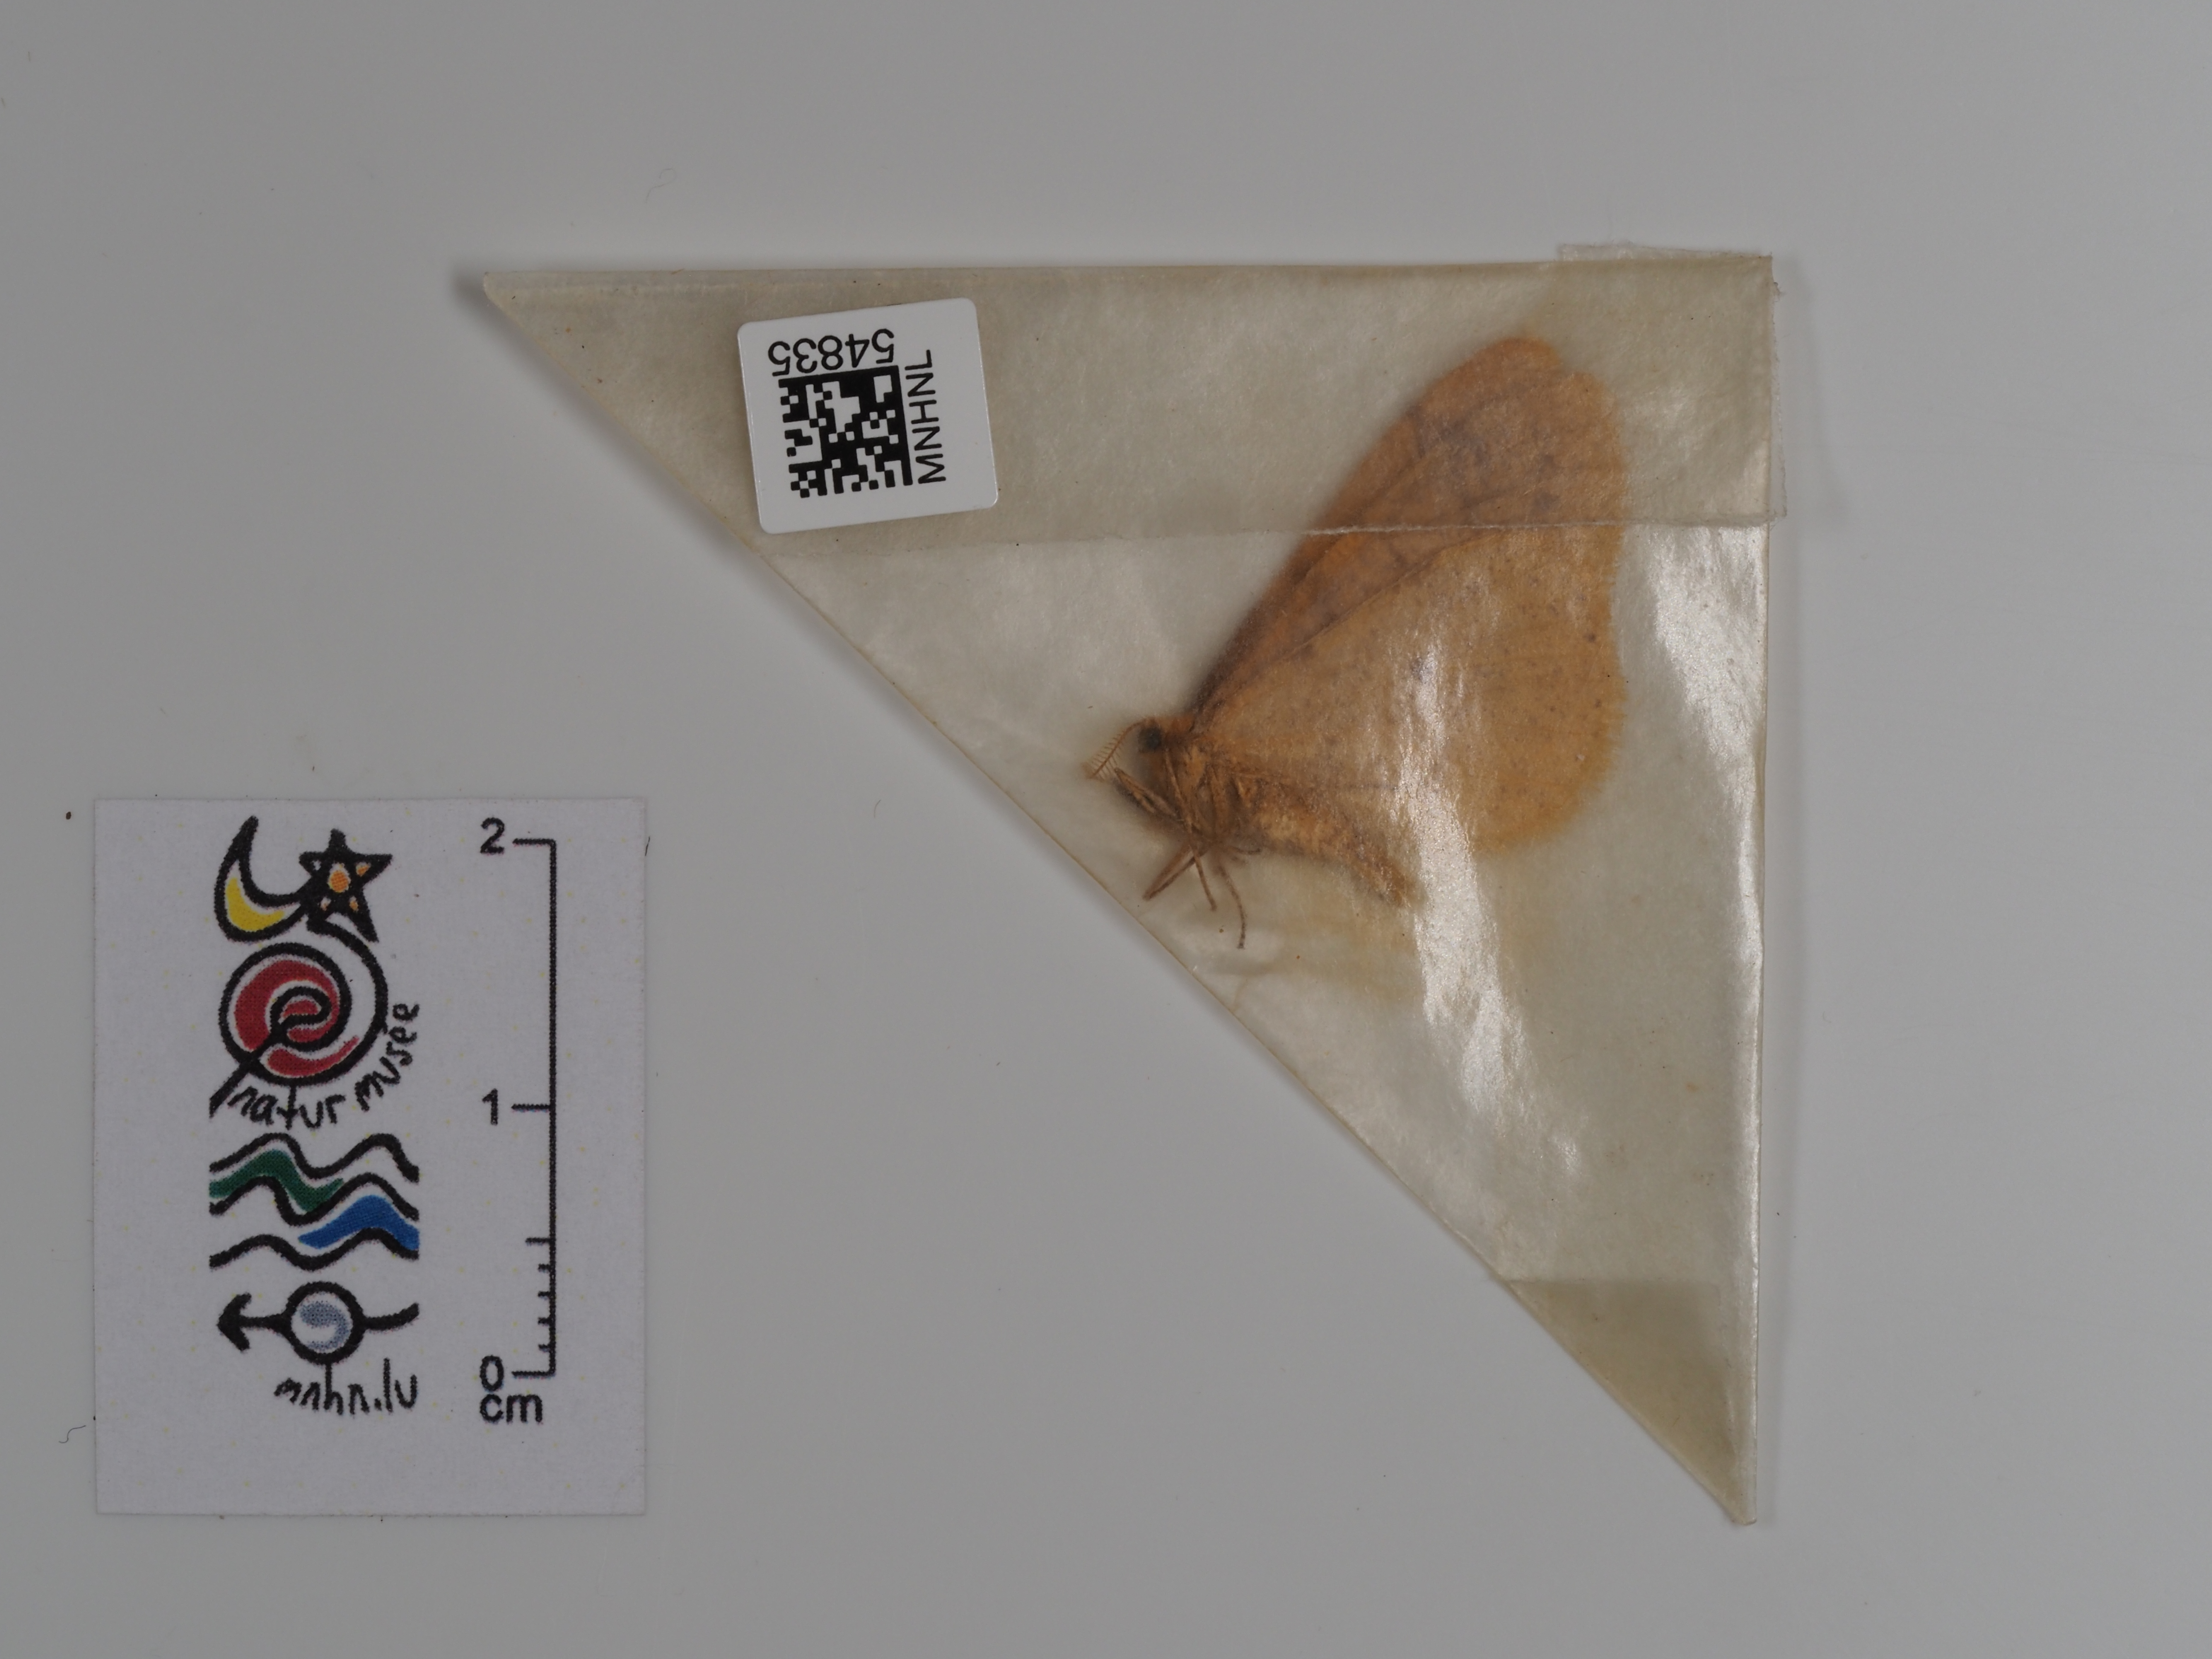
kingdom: Animalia
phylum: Arthropoda
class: Insecta
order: Lepidoptera
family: Geometridae
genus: Agriopis
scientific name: Agriopis aurantiaria
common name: Scarce umber
